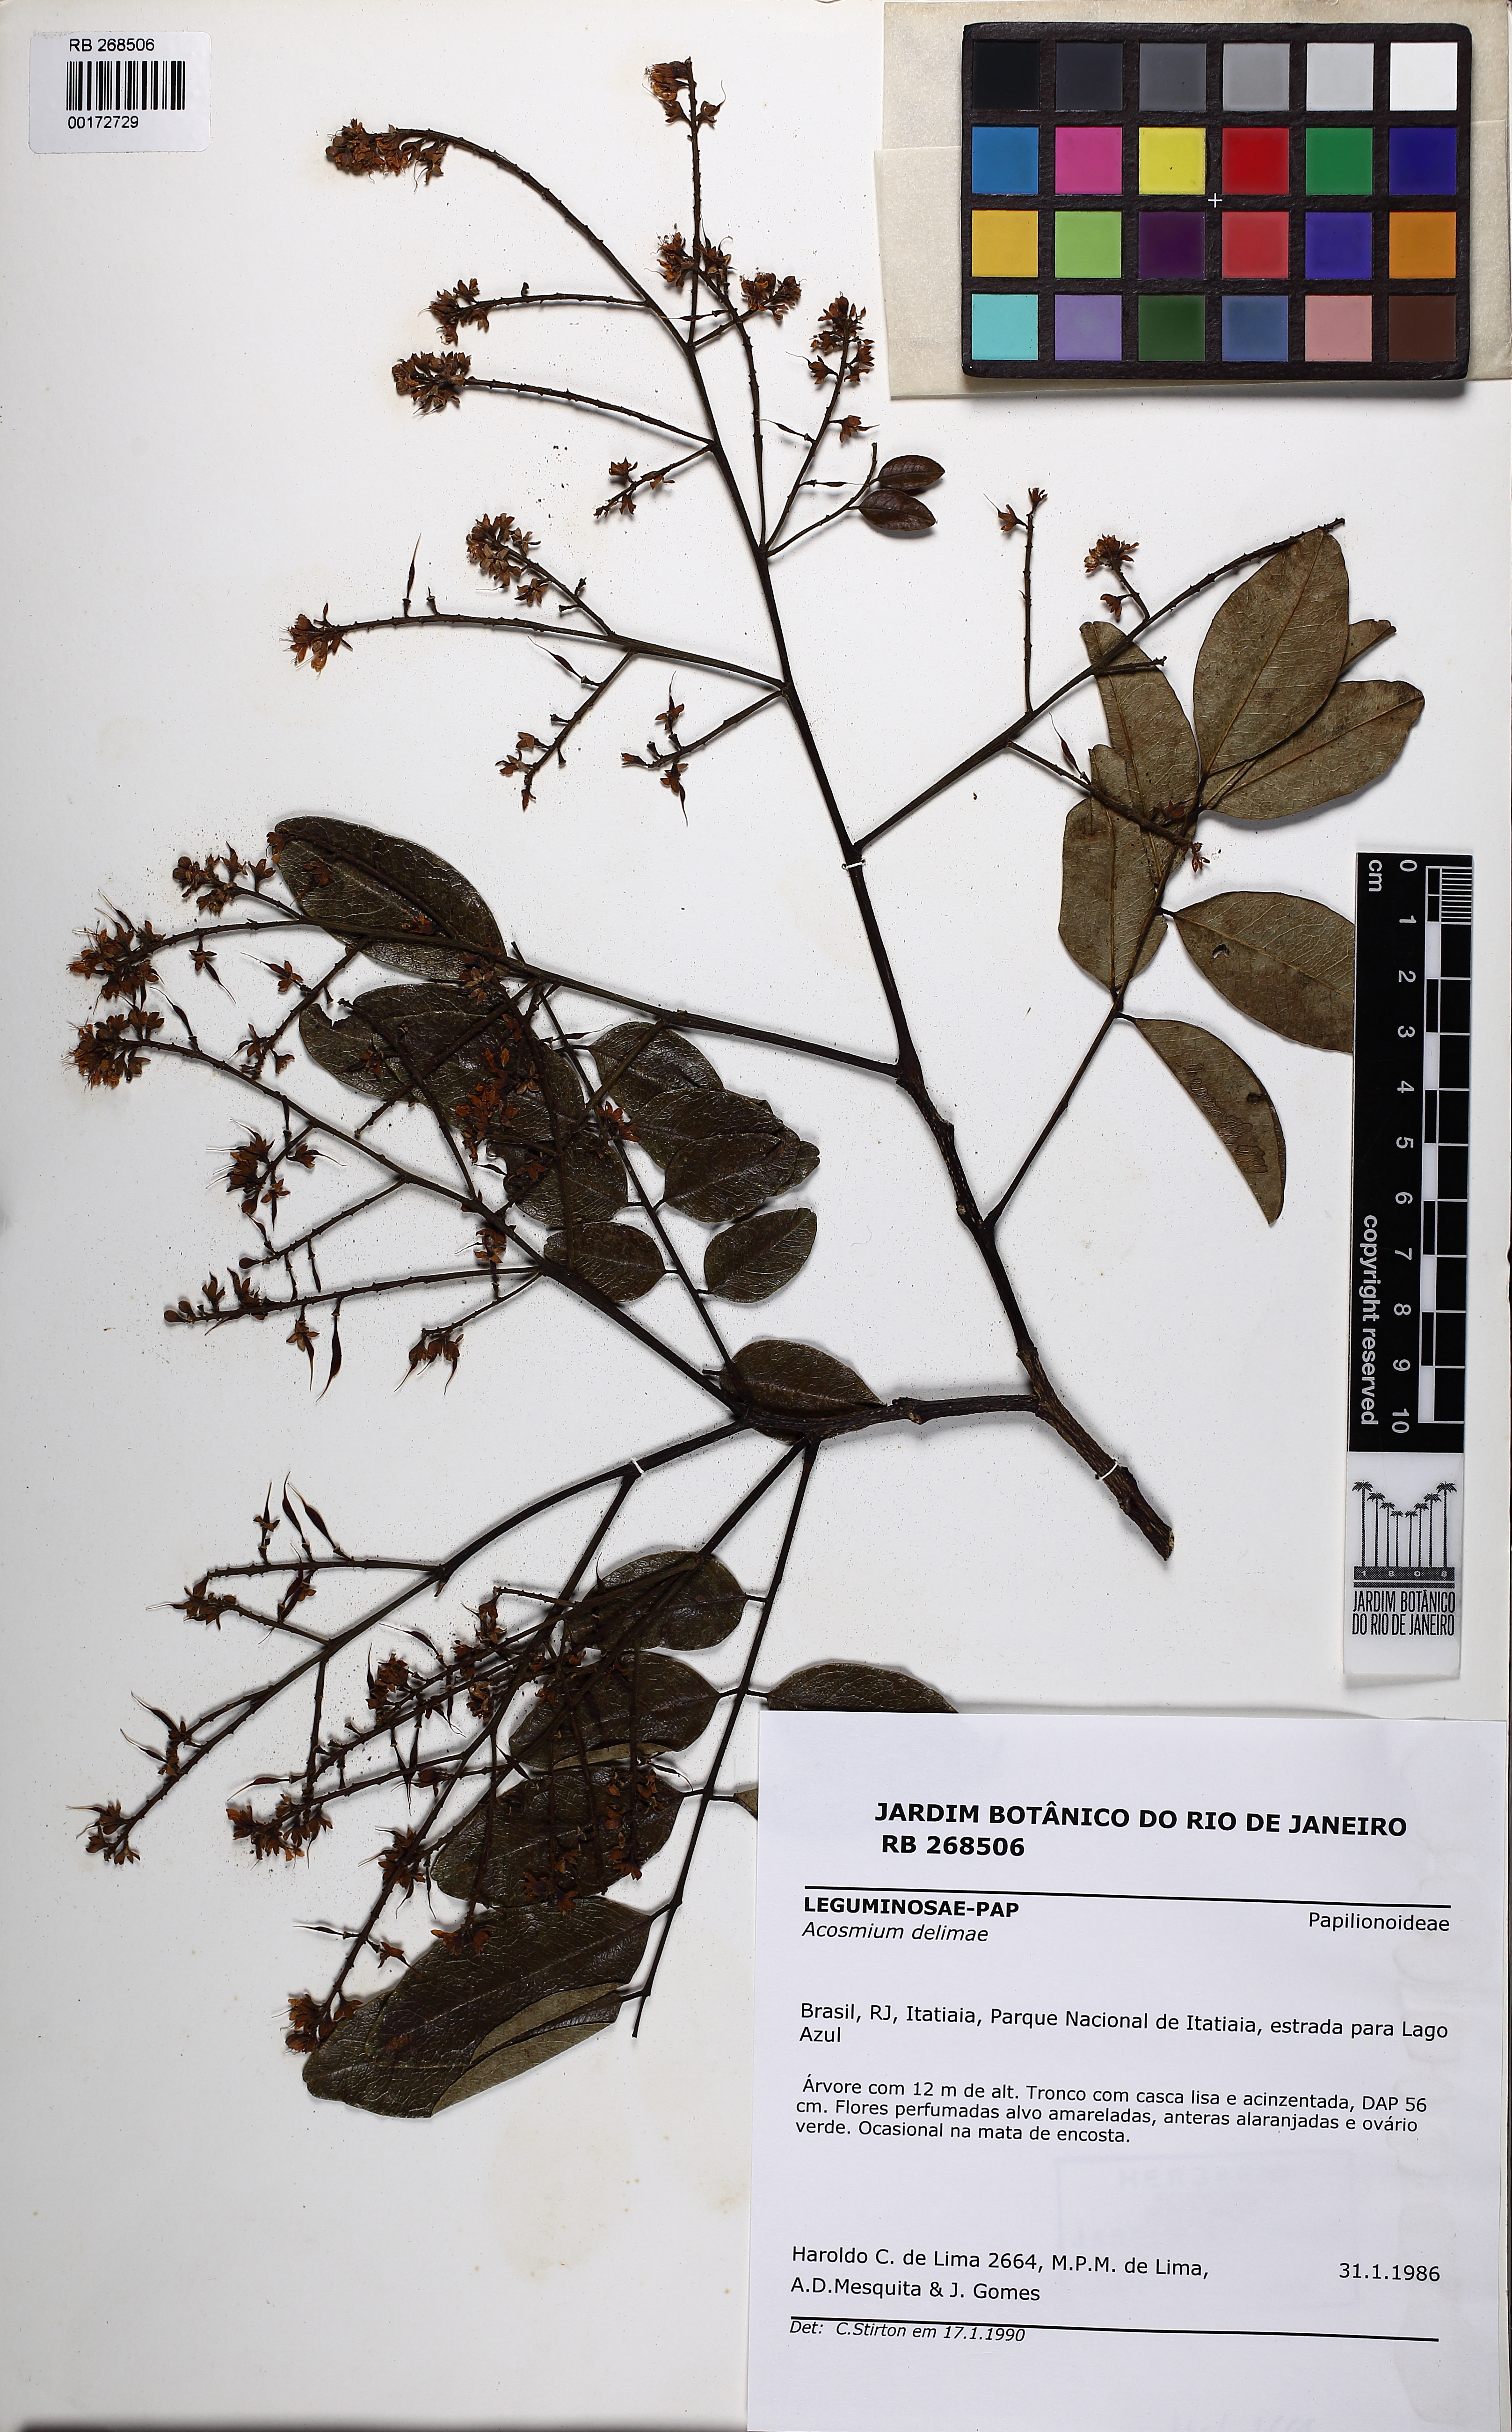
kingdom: Plantae
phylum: Tracheophyta
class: Magnoliopsida
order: Fabales
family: Fabaceae
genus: Leptolobium
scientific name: Leptolobium tenuifolium
